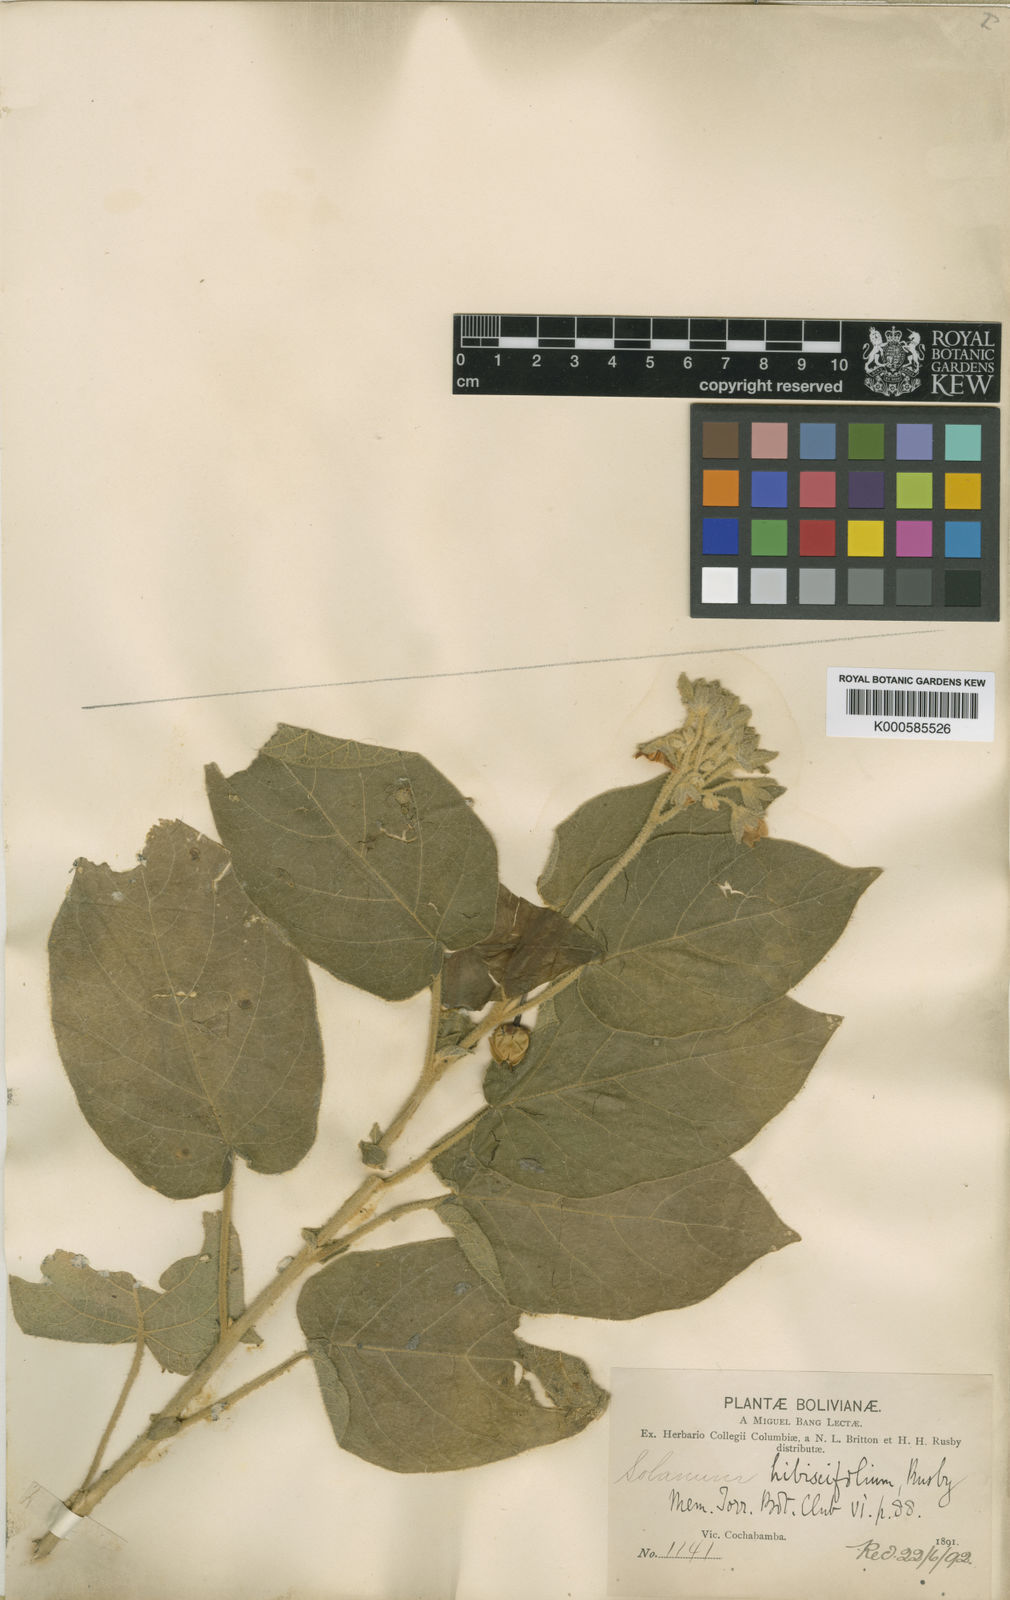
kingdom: Plantae
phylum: Tracheophyta
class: Magnoliopsida
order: Solanales
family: Solanaceae
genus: Solanum
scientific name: Solanum abutiloides
